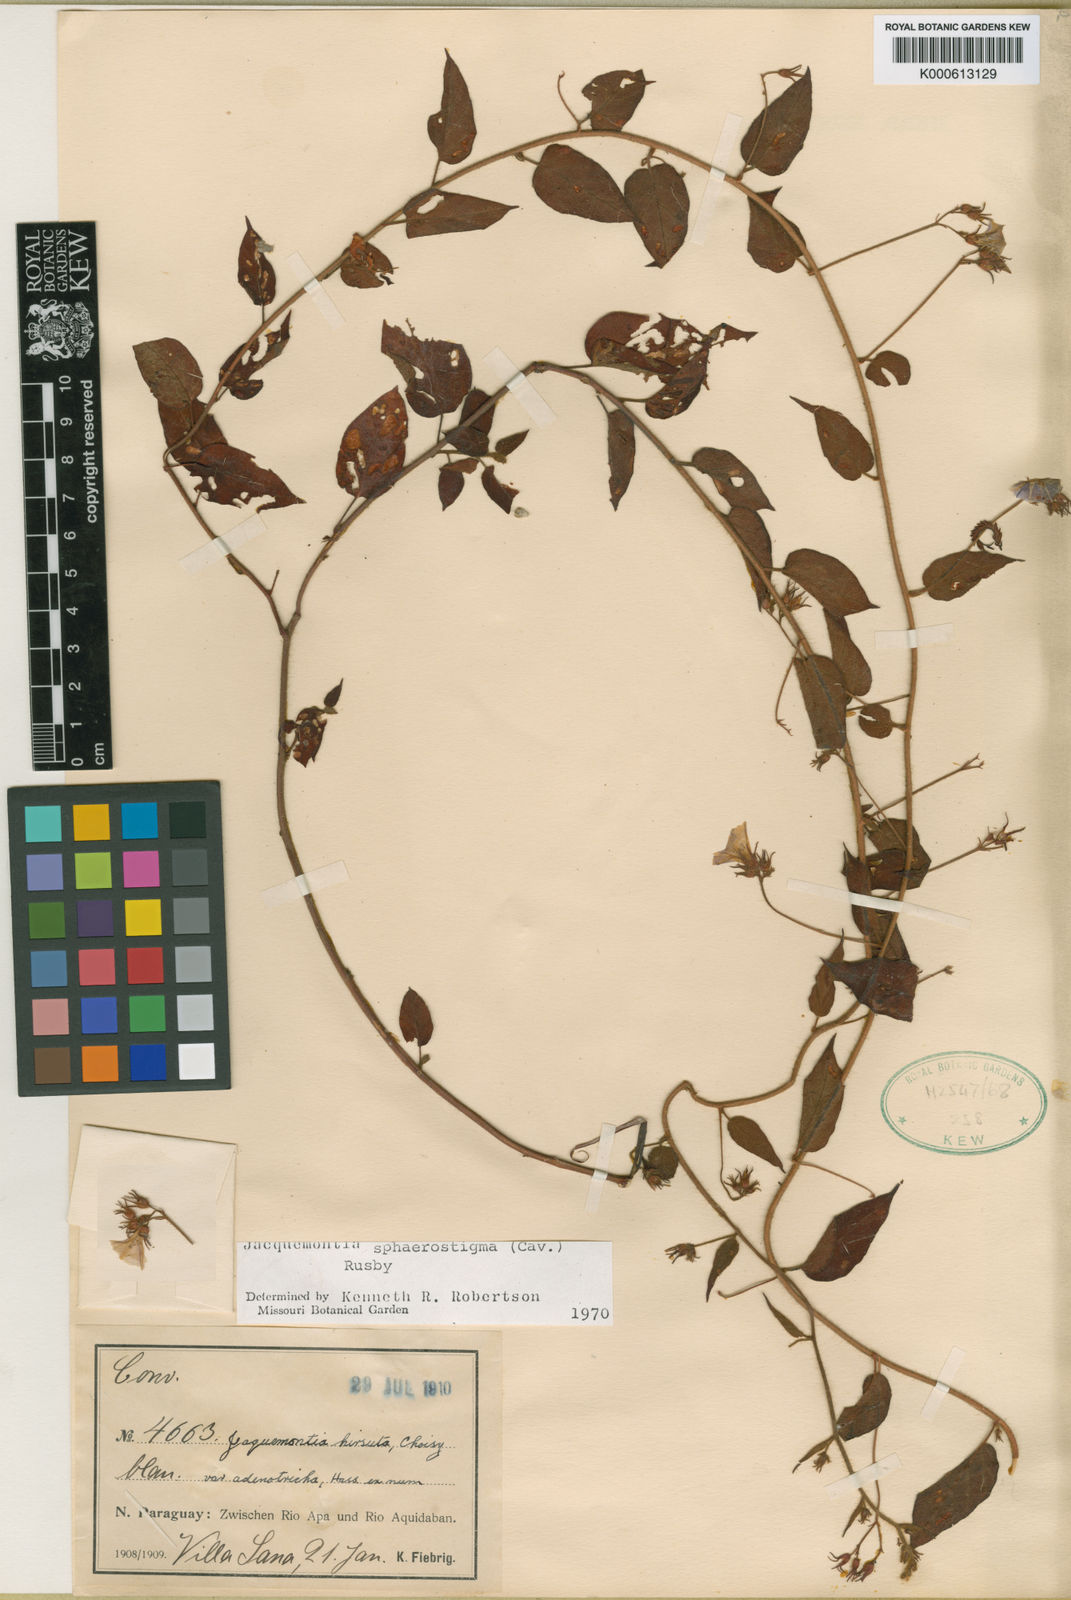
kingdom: Plantae
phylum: Tracheophyta
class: Magnoliopsida
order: Solanales
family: Convolvulaceae
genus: Jacquemontia
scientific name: Jacquemontia sphaerostigma
